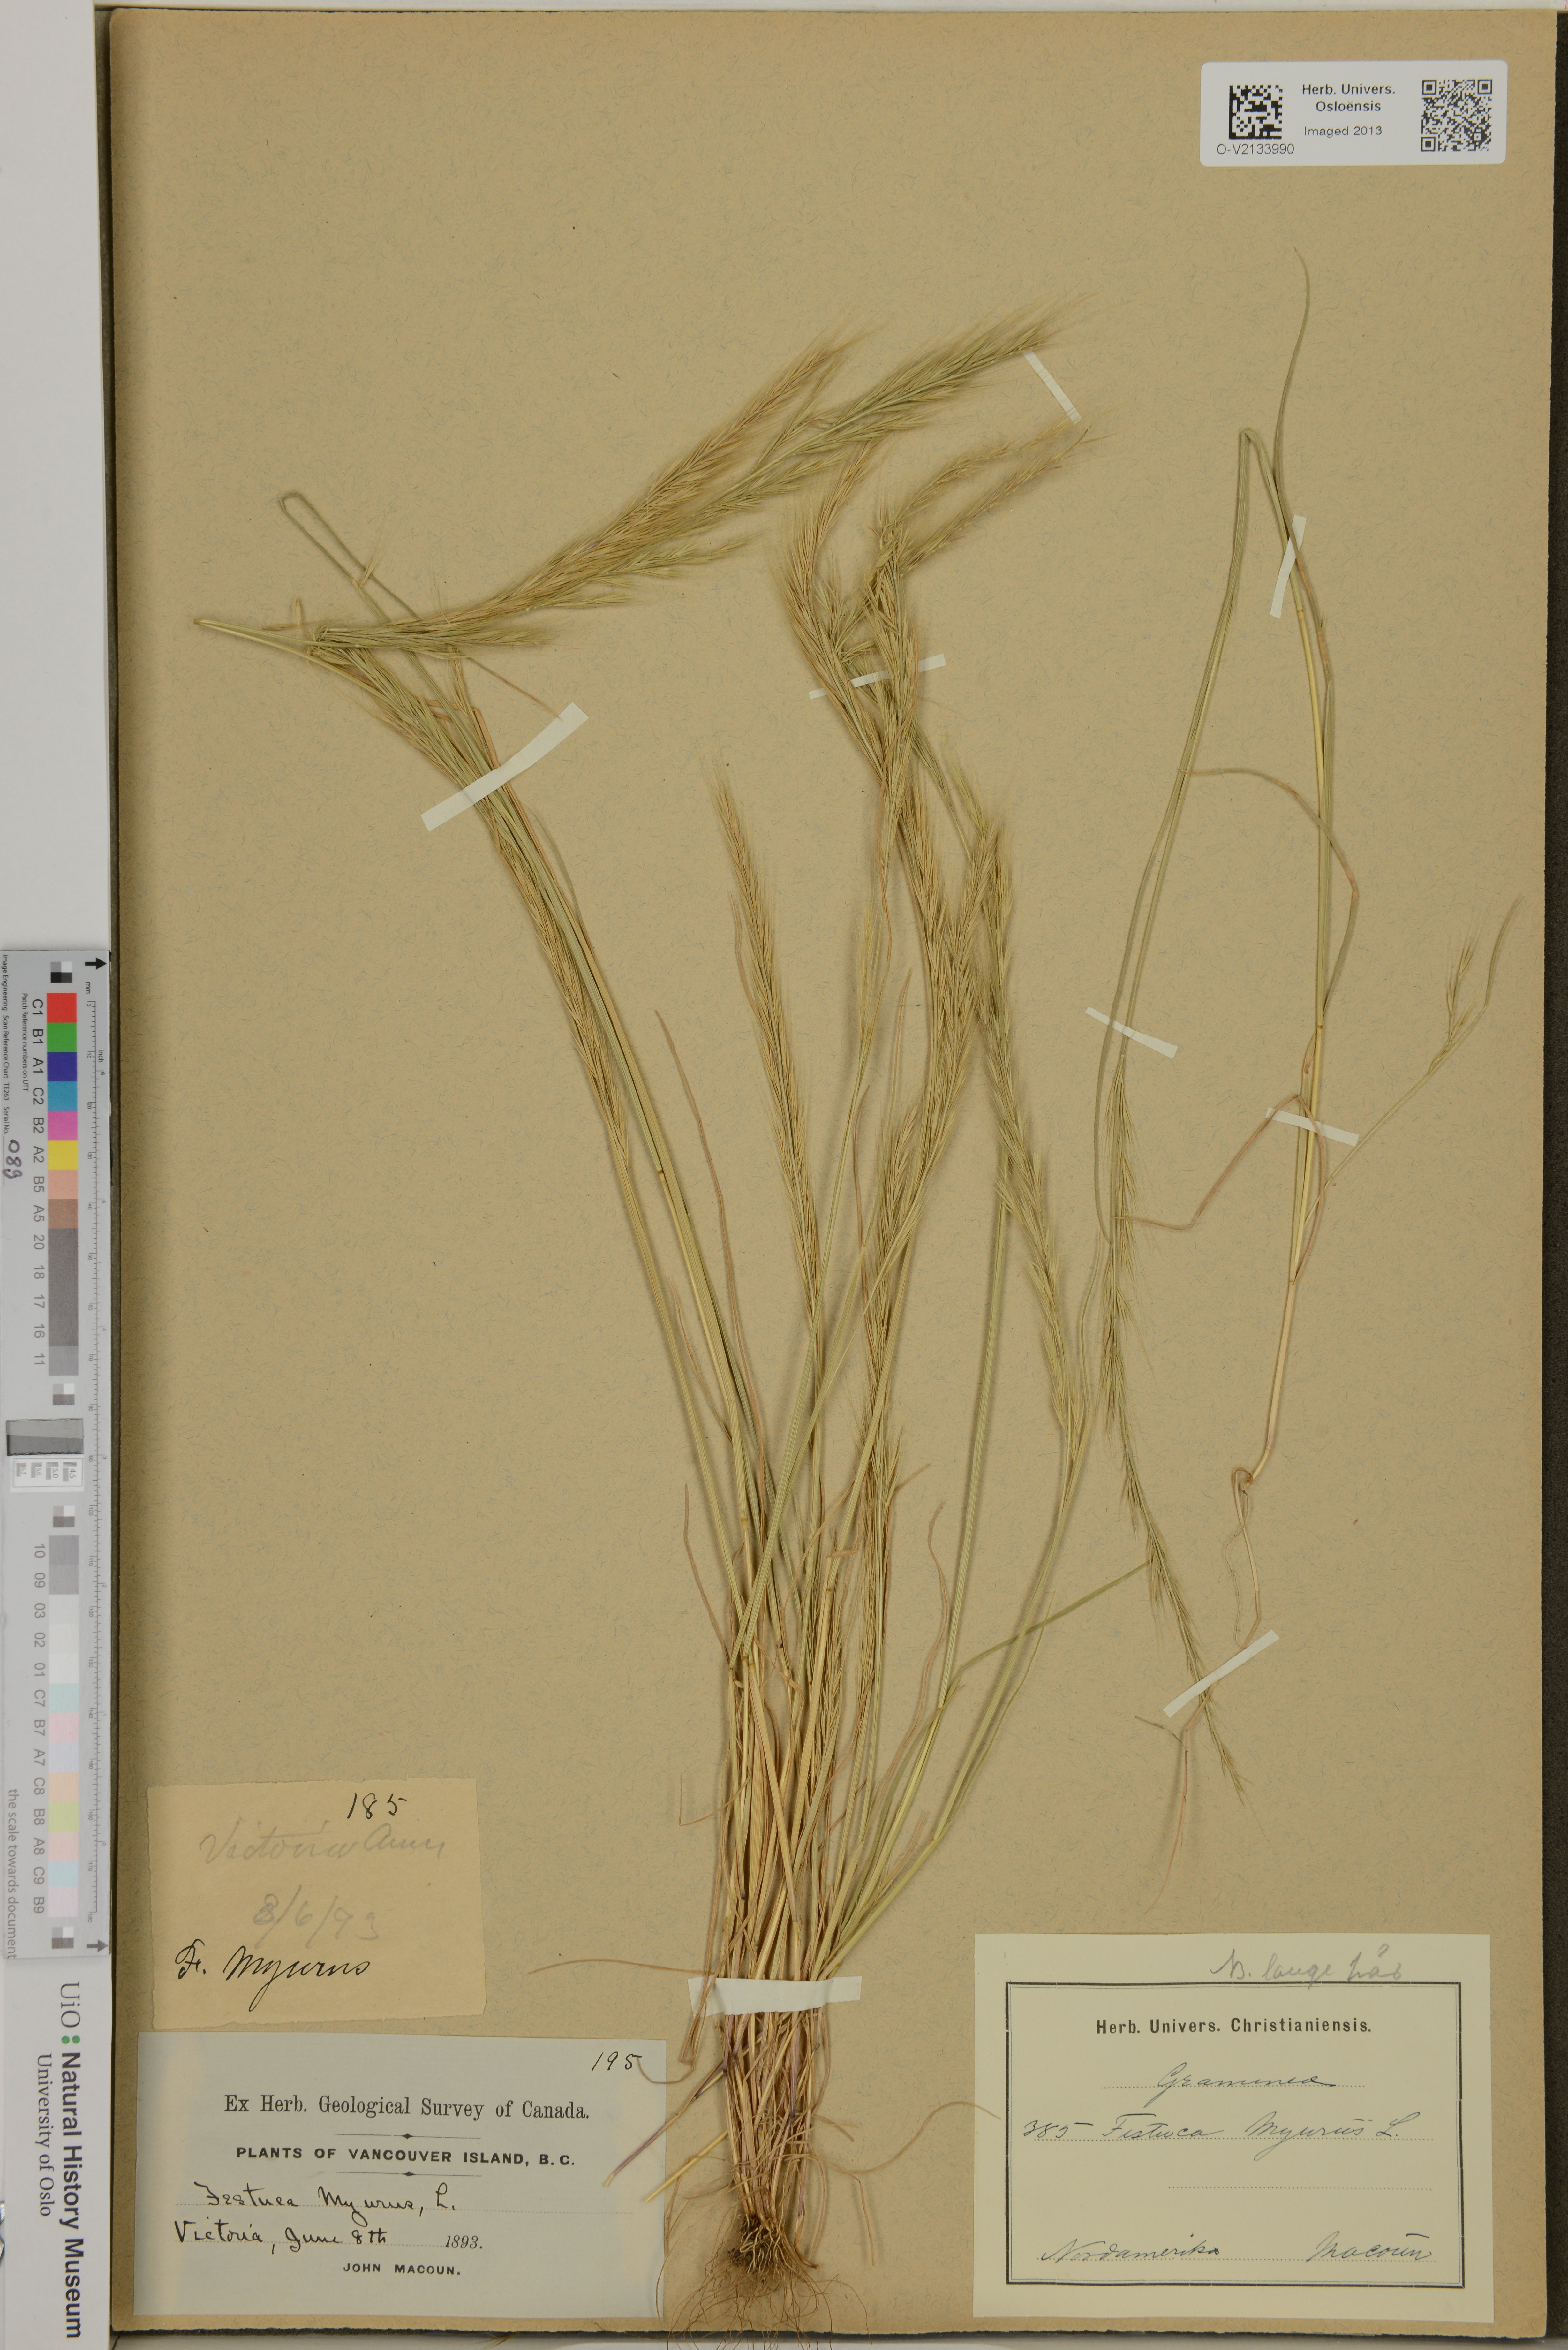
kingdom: Plantae
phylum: Tracheophyta
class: Liliopsida
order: Poales
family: Poaceae
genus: Festuca
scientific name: Festuca myuros
